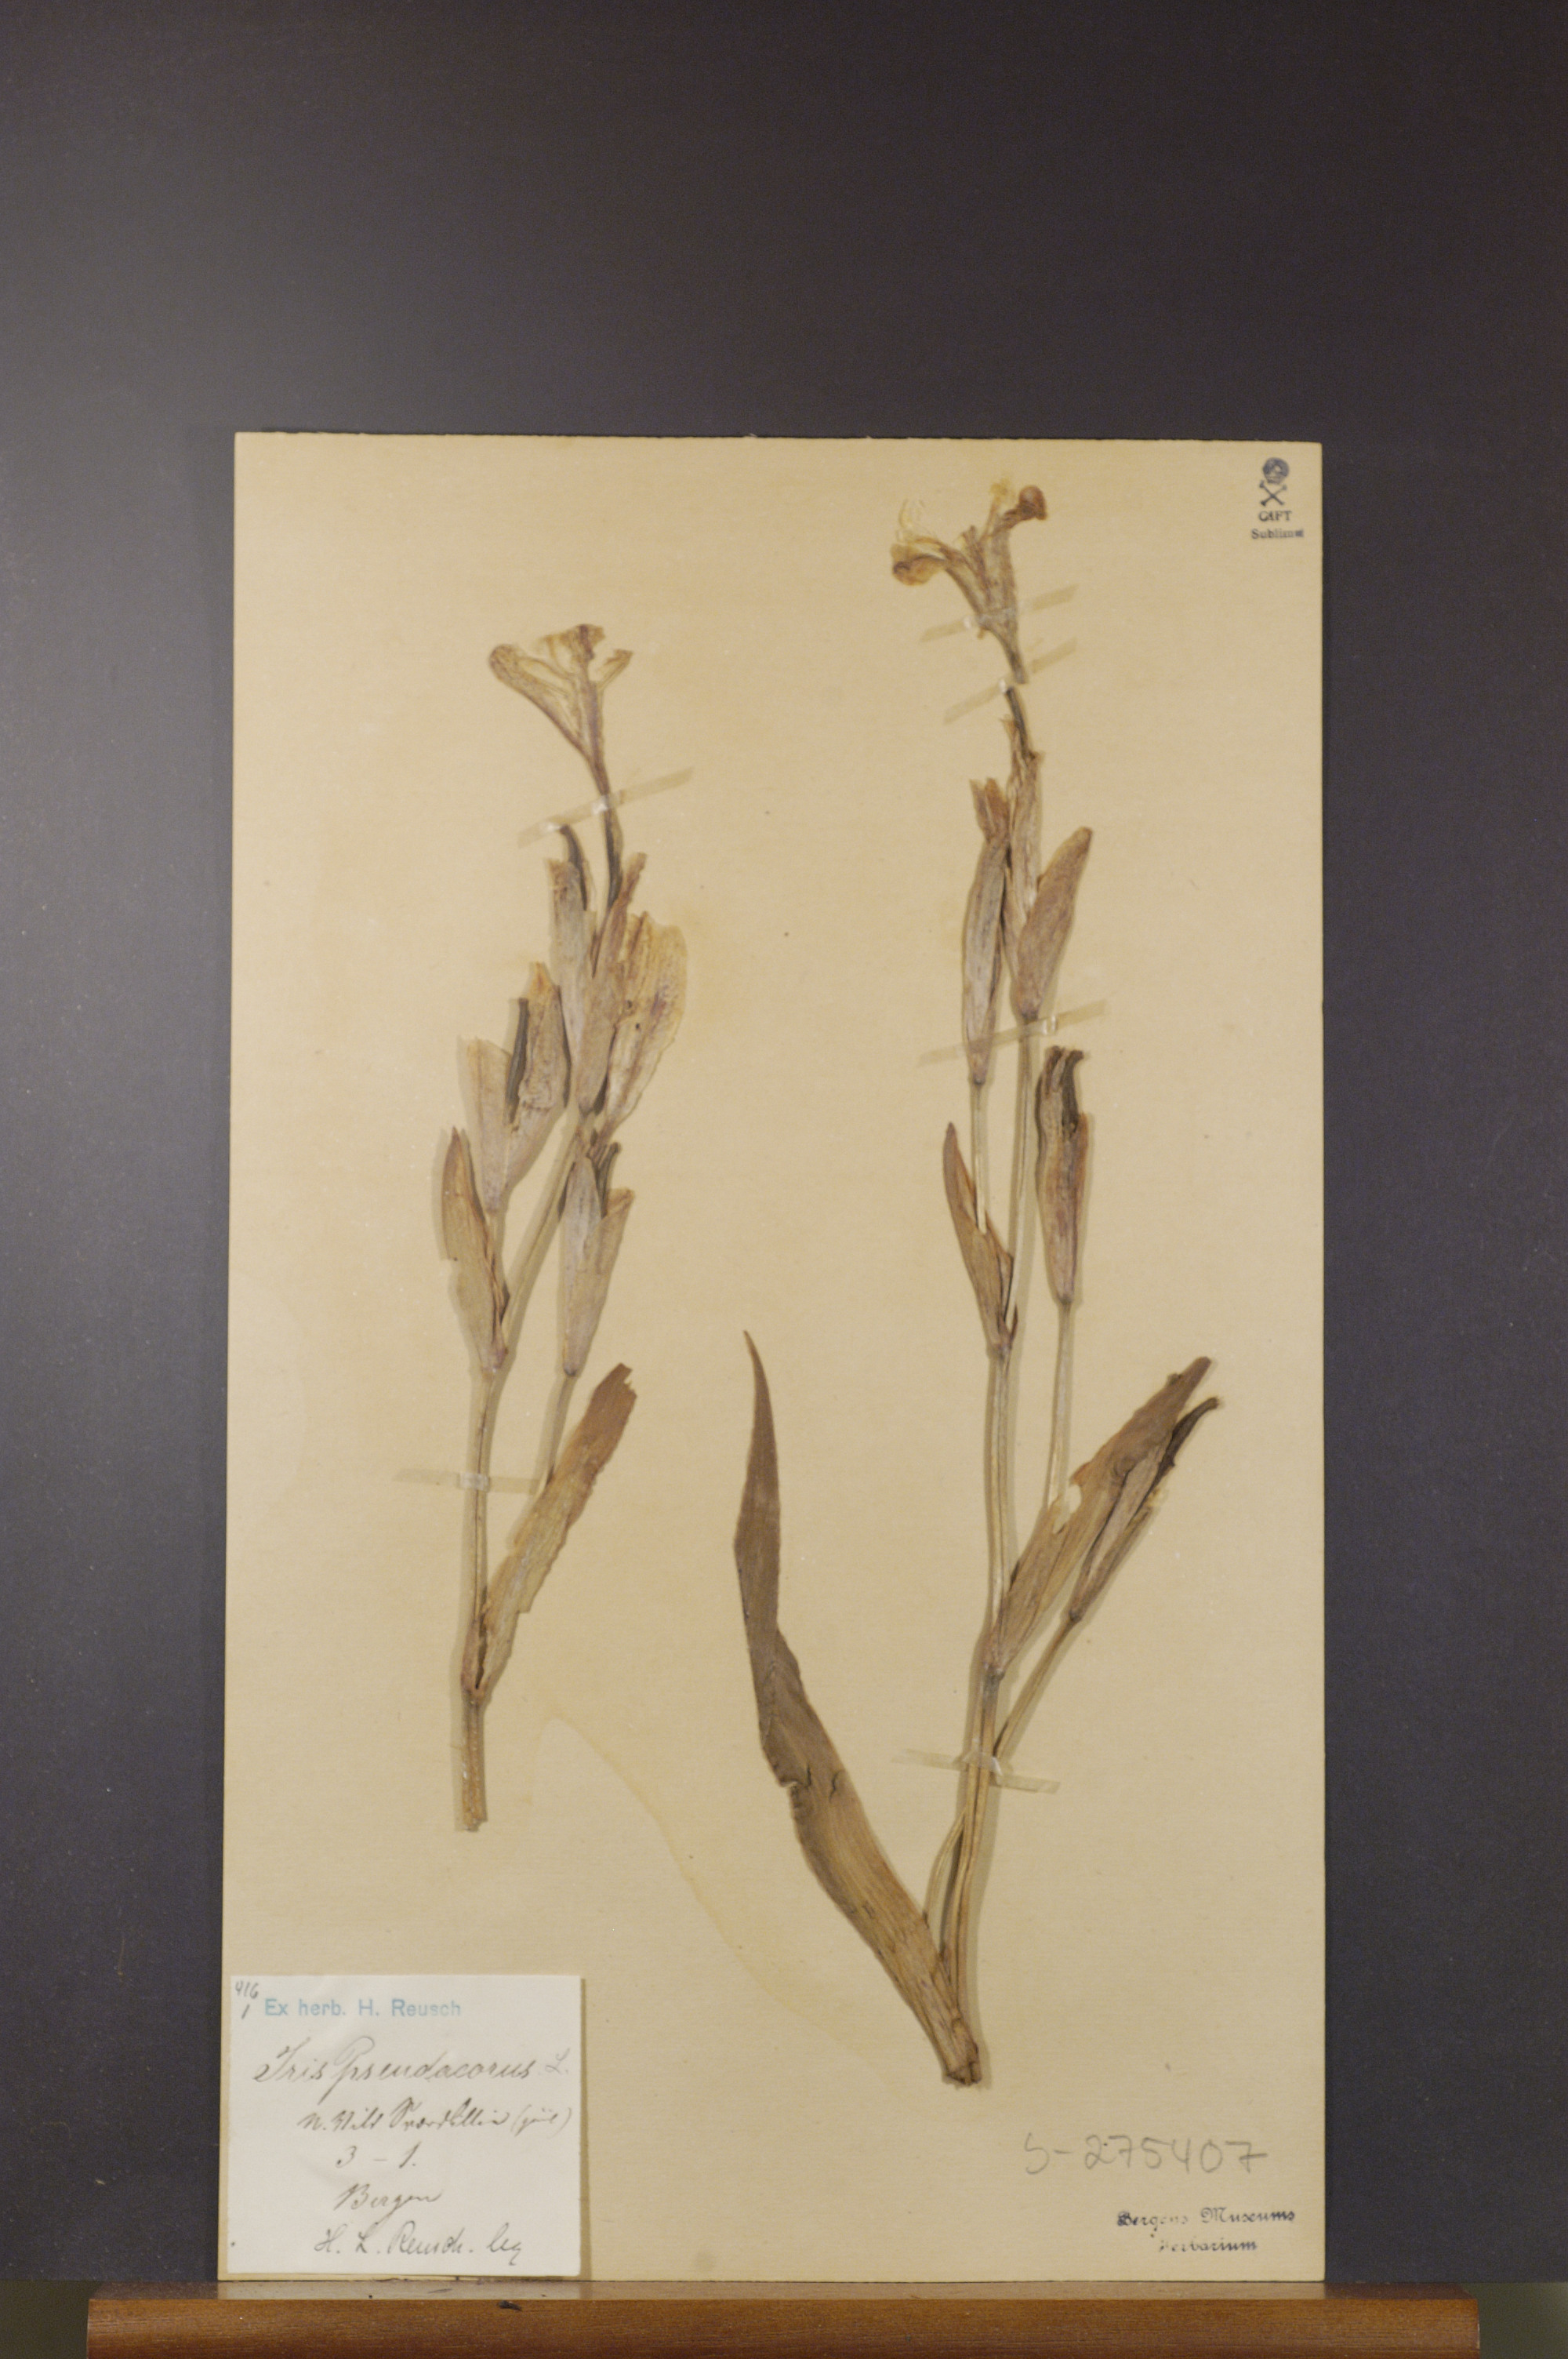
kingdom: Plantae
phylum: Tracheophyta
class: Liliopsida
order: Asparagales
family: Iridaceae
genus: Iris
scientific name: Iris pseudacorus
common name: Yellow flag
